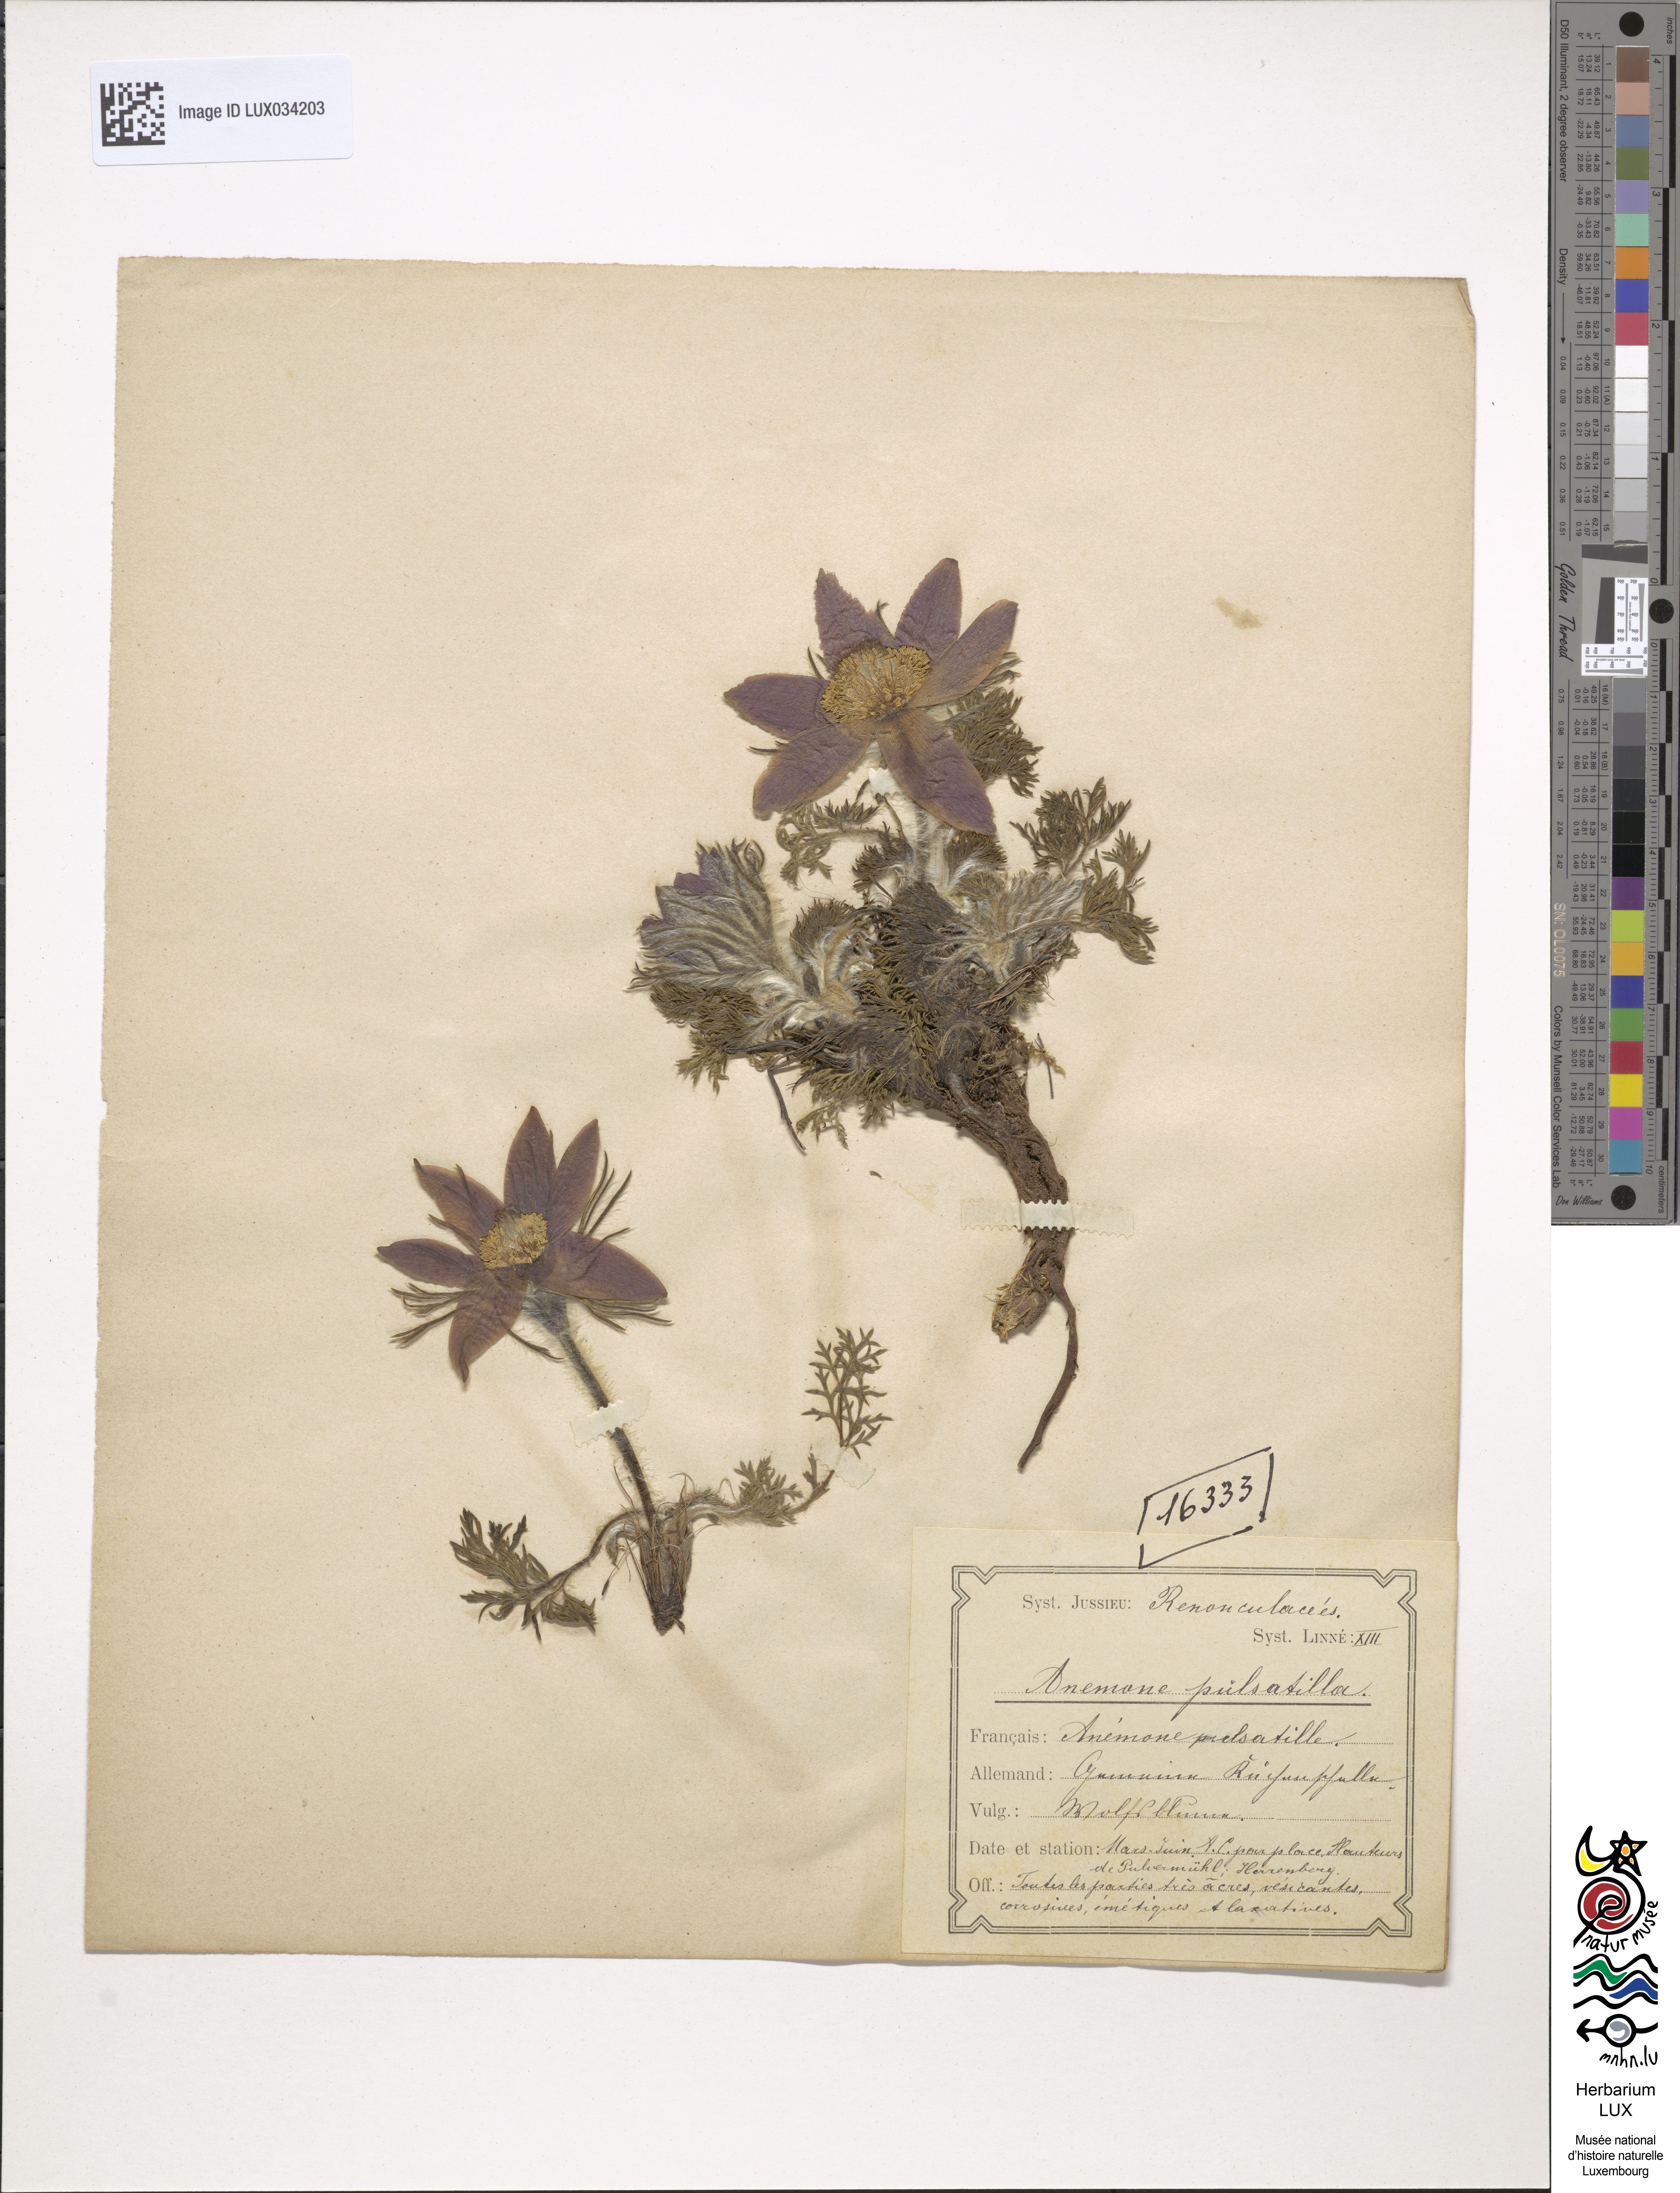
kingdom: Plantae
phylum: Tracheophyta
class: Magnoliopsida
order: Ranunculales
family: Ranunculaceae
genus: Pulsatilla
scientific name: Pulsatilla vulgaris
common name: Pasqueflower
